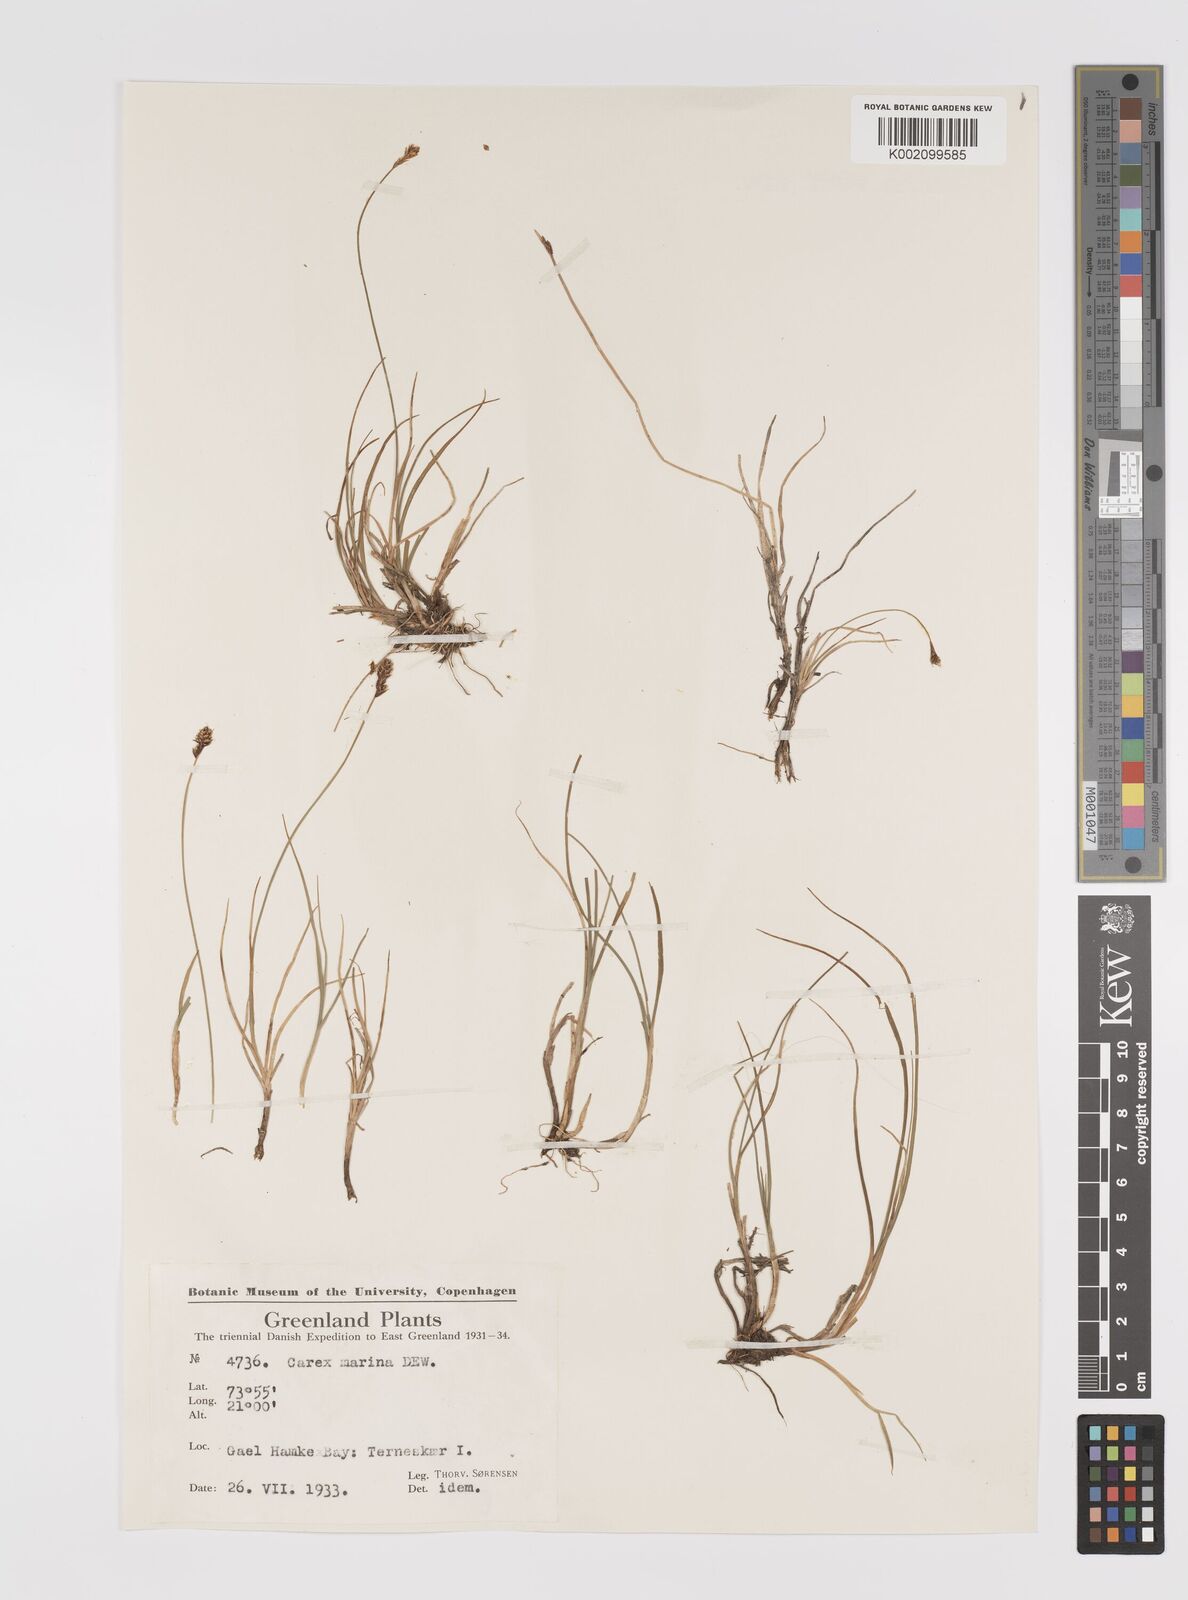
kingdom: Plantae
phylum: Tracheophyta
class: Liliopsida
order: Poales
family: Cyperaceae
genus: Carex
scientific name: Carex marina
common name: Seashore sedge
